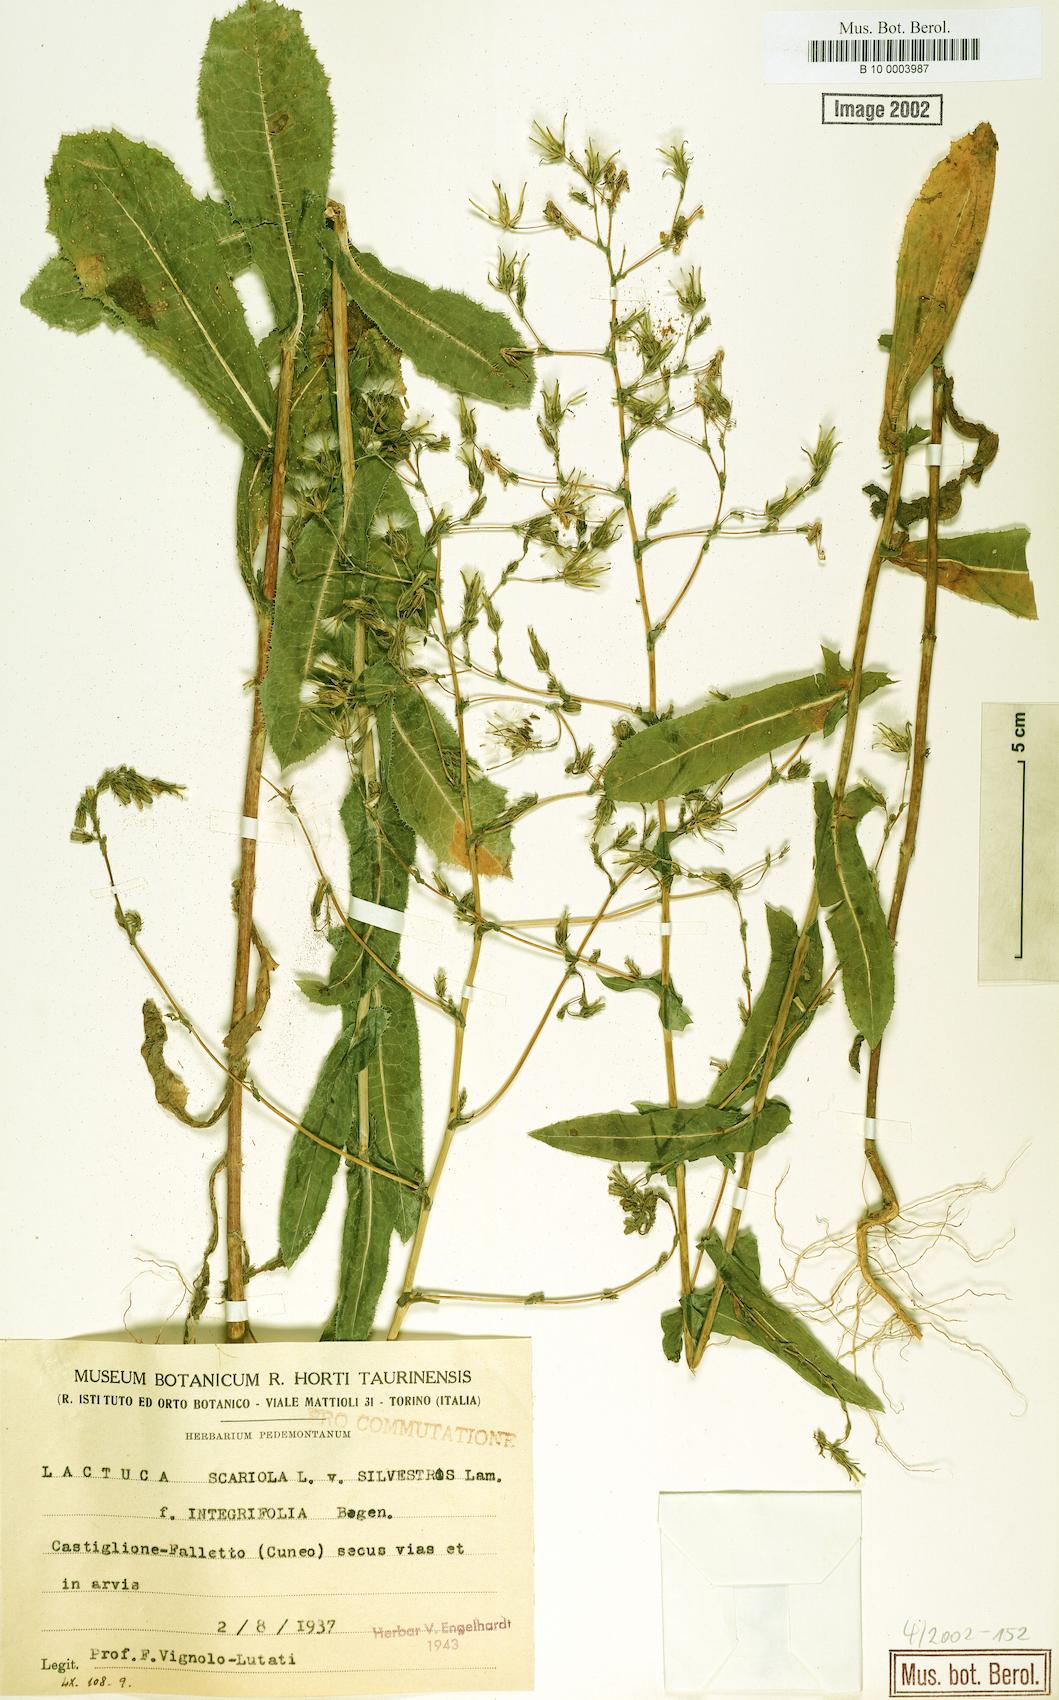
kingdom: Plantae
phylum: Tracheophyta
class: Magnoliopsida
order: Asterales
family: Asteraceae
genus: Lactuca
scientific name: Lactuca serriola
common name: Prickly lettuce
